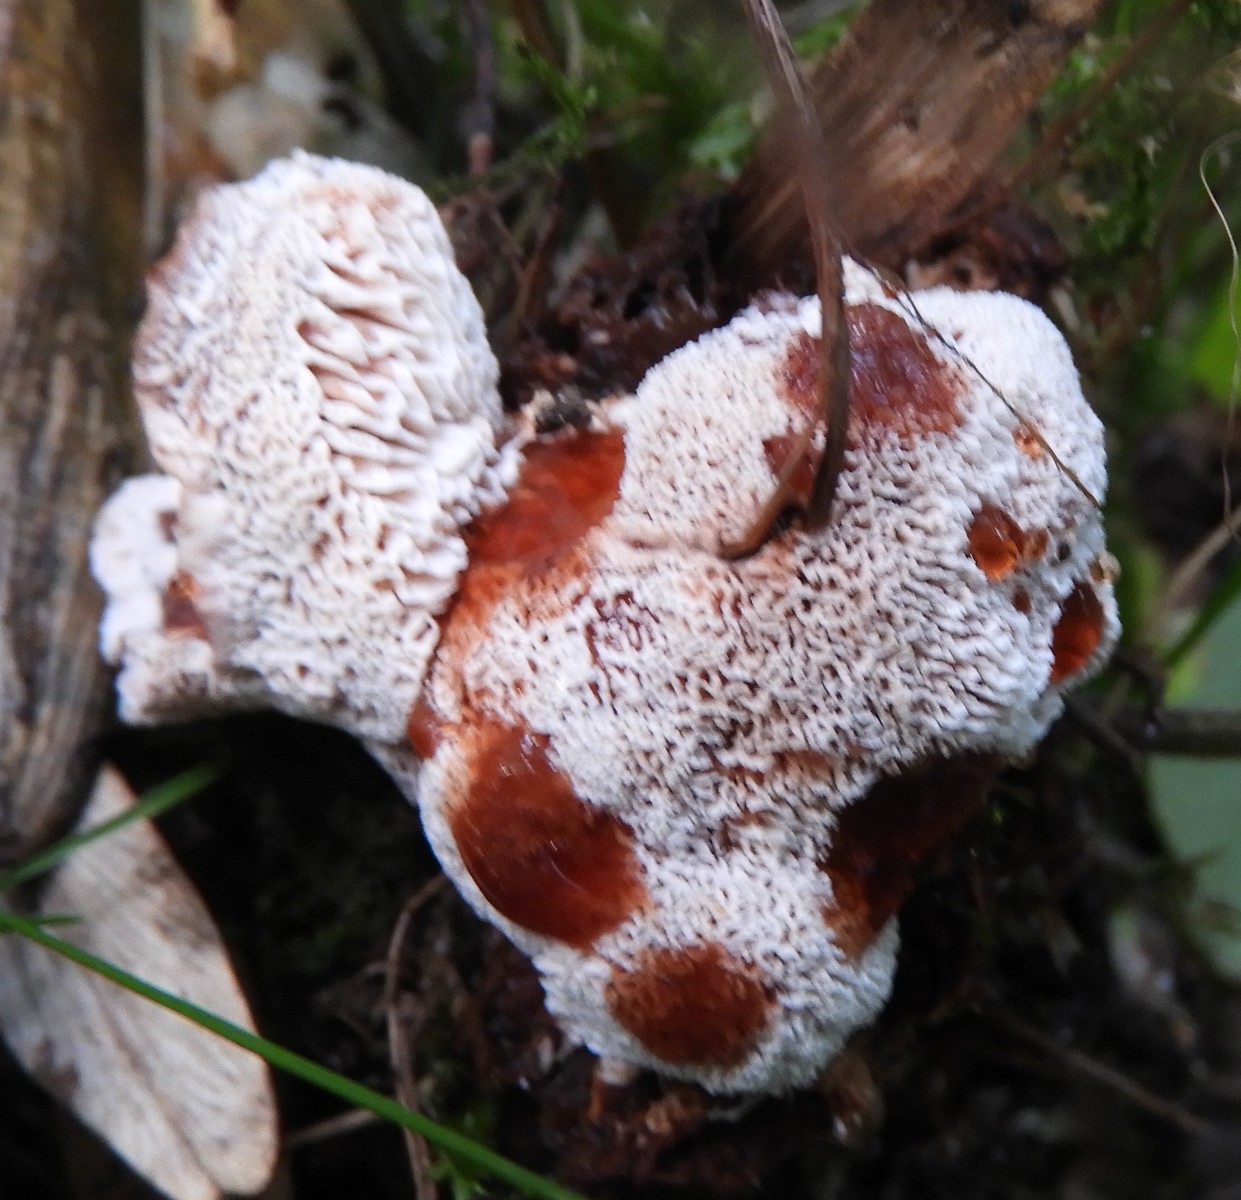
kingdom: Fungi
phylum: Basidiomycota
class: Agaricomycetes
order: Polyporales
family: Podoscyphaceae
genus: Abortiporus
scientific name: Abortiporus biennis
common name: rødmende pjalteporesvamp
